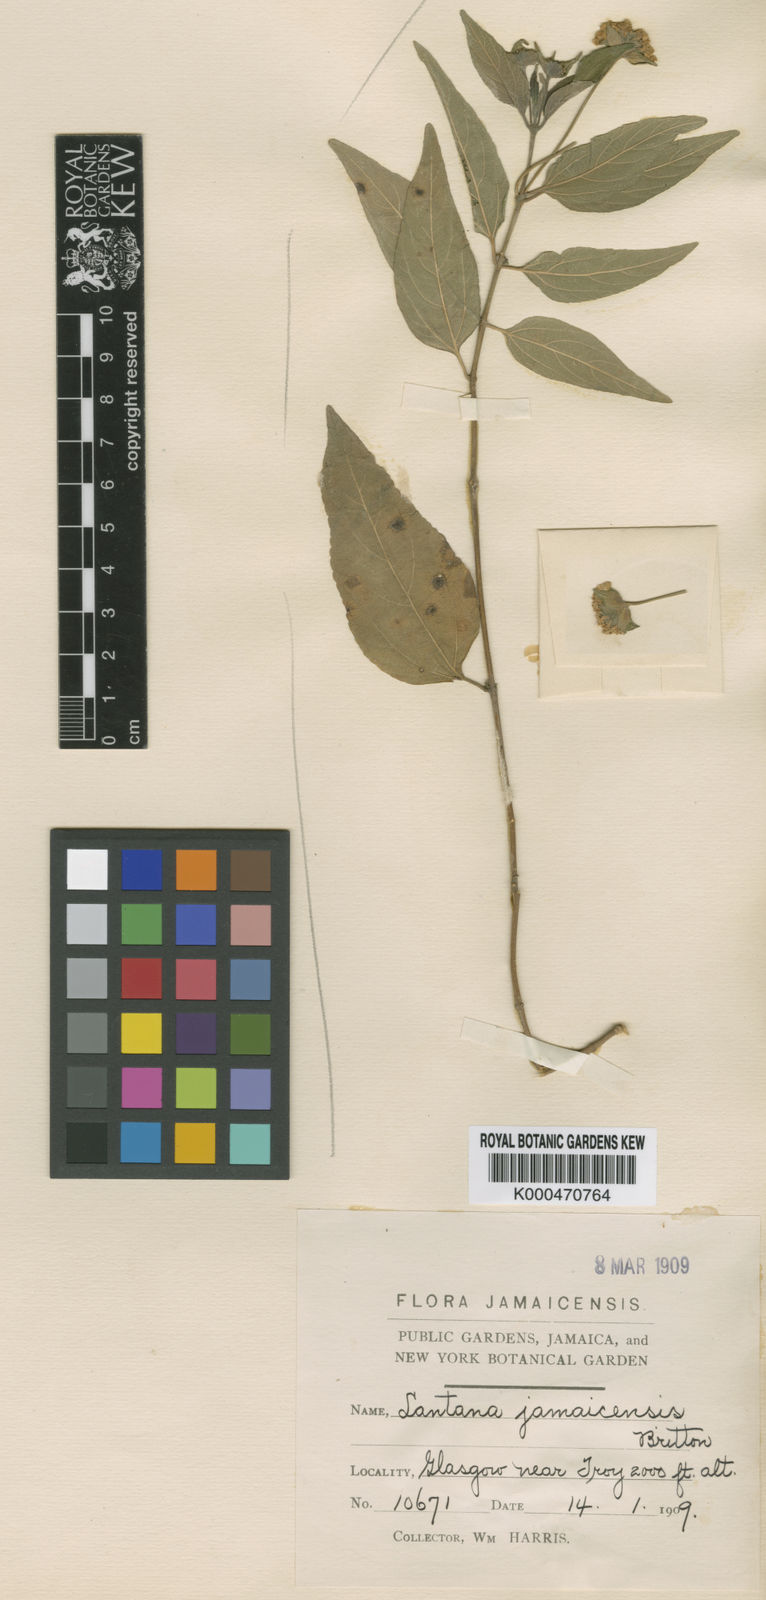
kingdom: Plantae
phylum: Tracheophyta
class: Magnoliopsida
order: Lamiales
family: Verbenaceae
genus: Lantana
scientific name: Lantana jamaicensis
